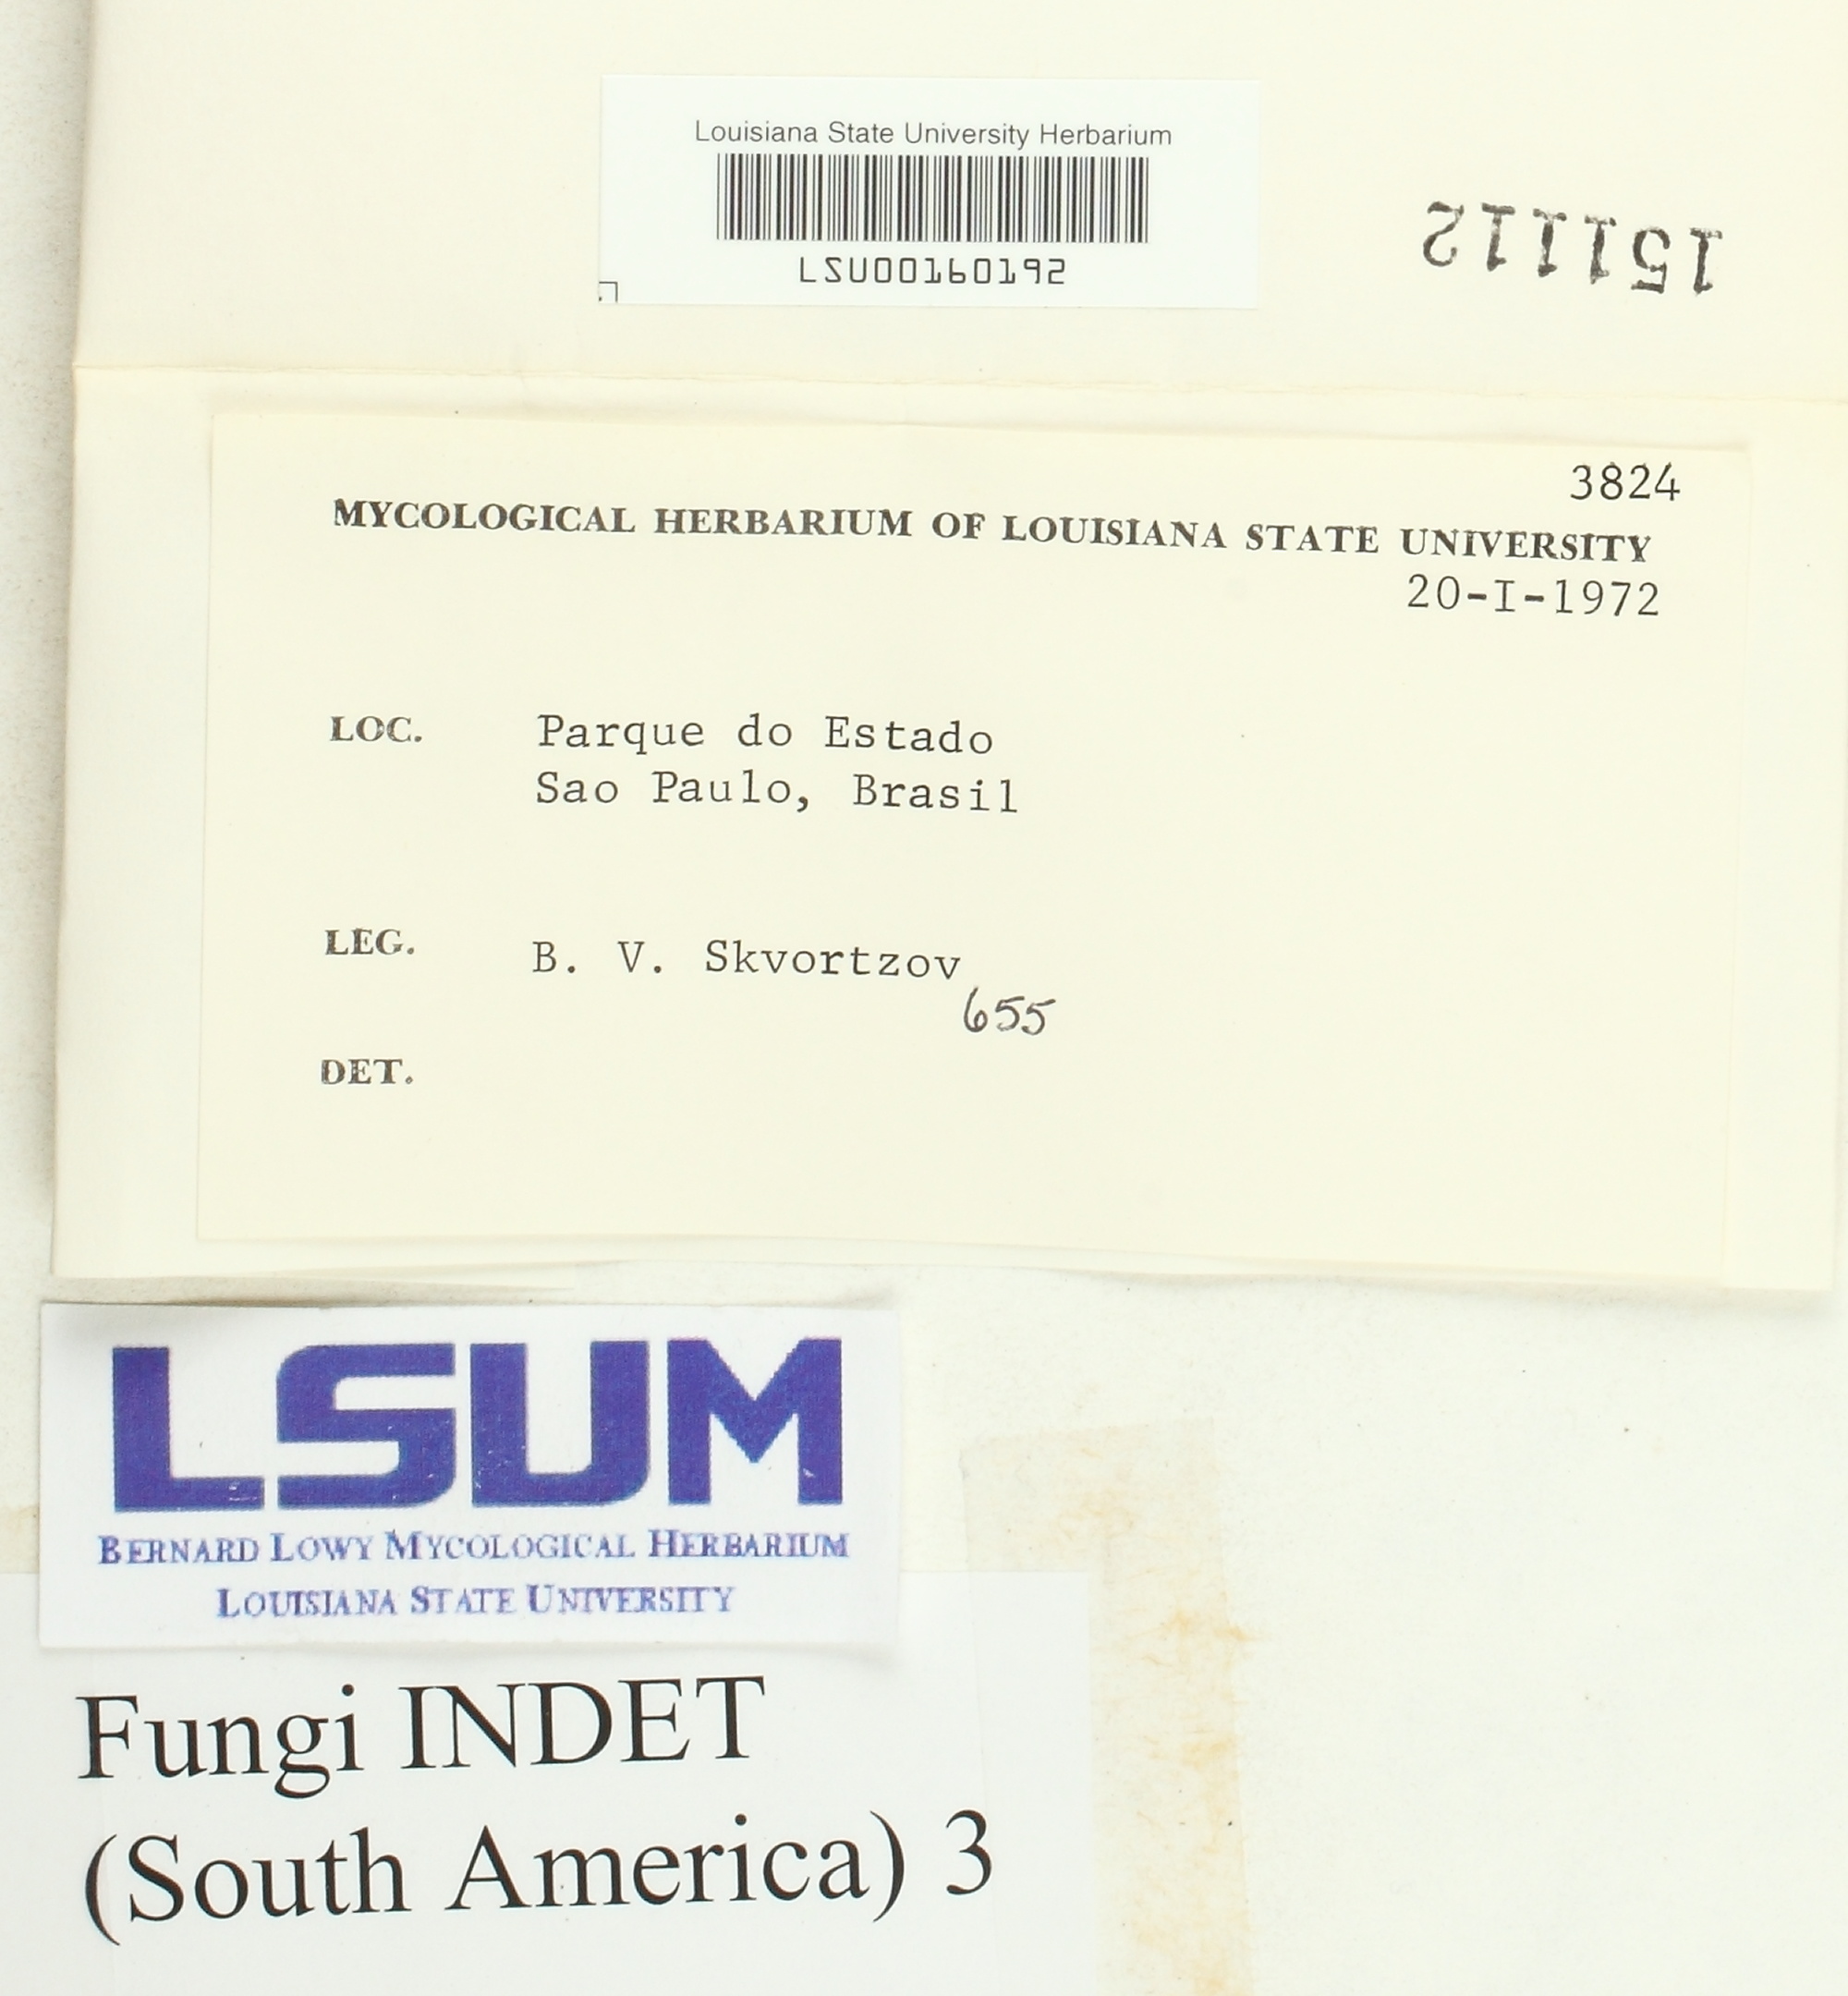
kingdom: Fungi
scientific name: Fungi
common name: Fungi
